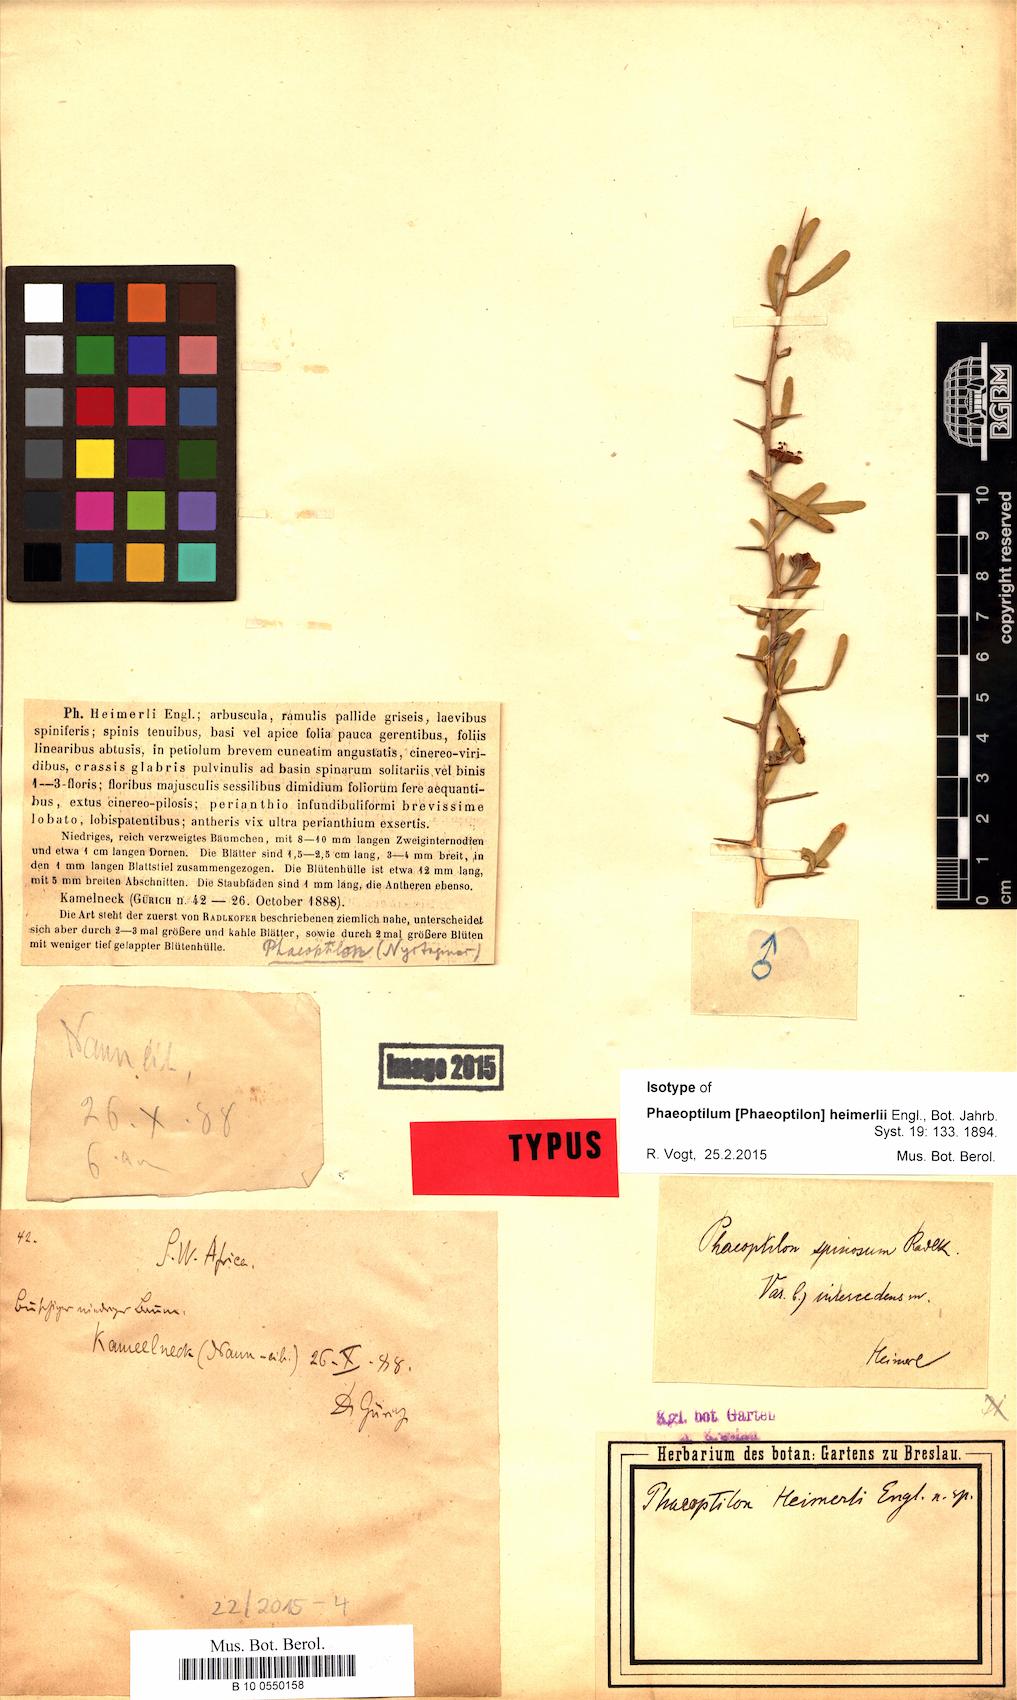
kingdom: Plantae
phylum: Tracheophyta
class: Magnoliopsida
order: Caryophyllales
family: Nyctaginaceae
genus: Phaeoptilum
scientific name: Phaeoptilum spinosum
